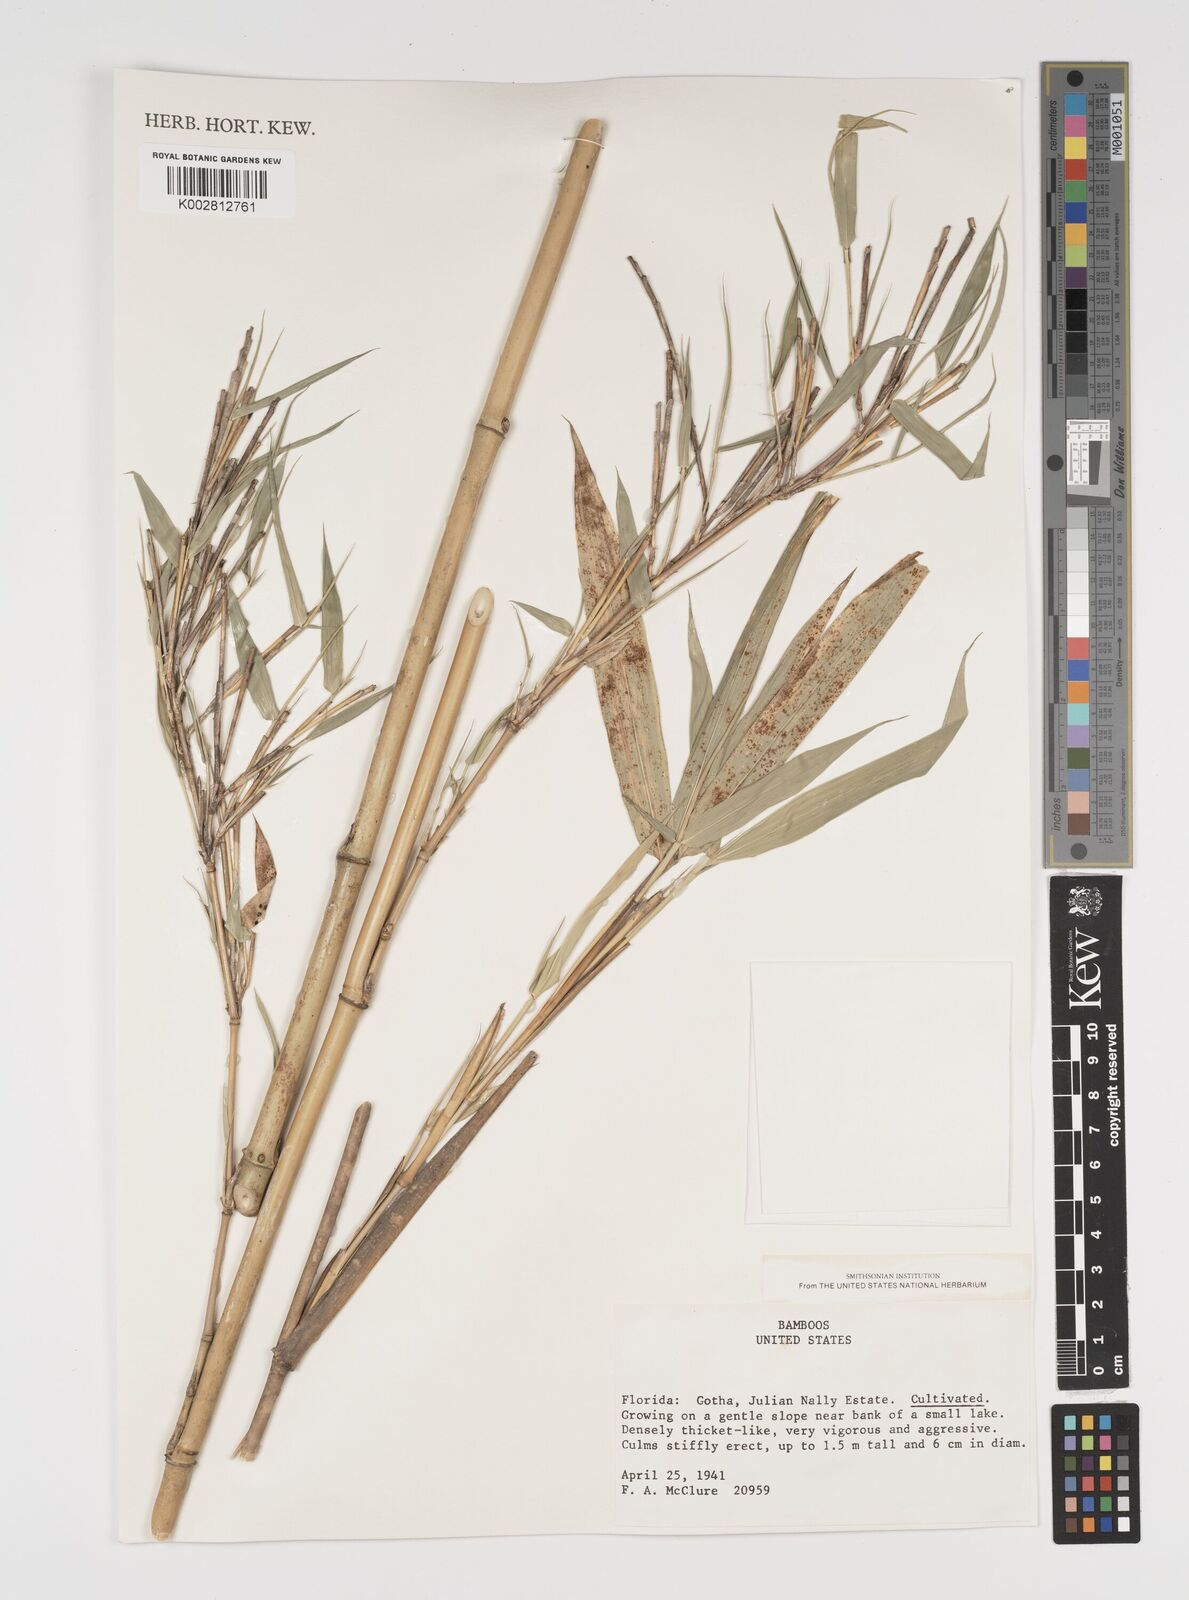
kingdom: Plantae
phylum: Tracheophyta
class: Liliopsida
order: Poales
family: Poaceae
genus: Arundinaria
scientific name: Arundinaria
